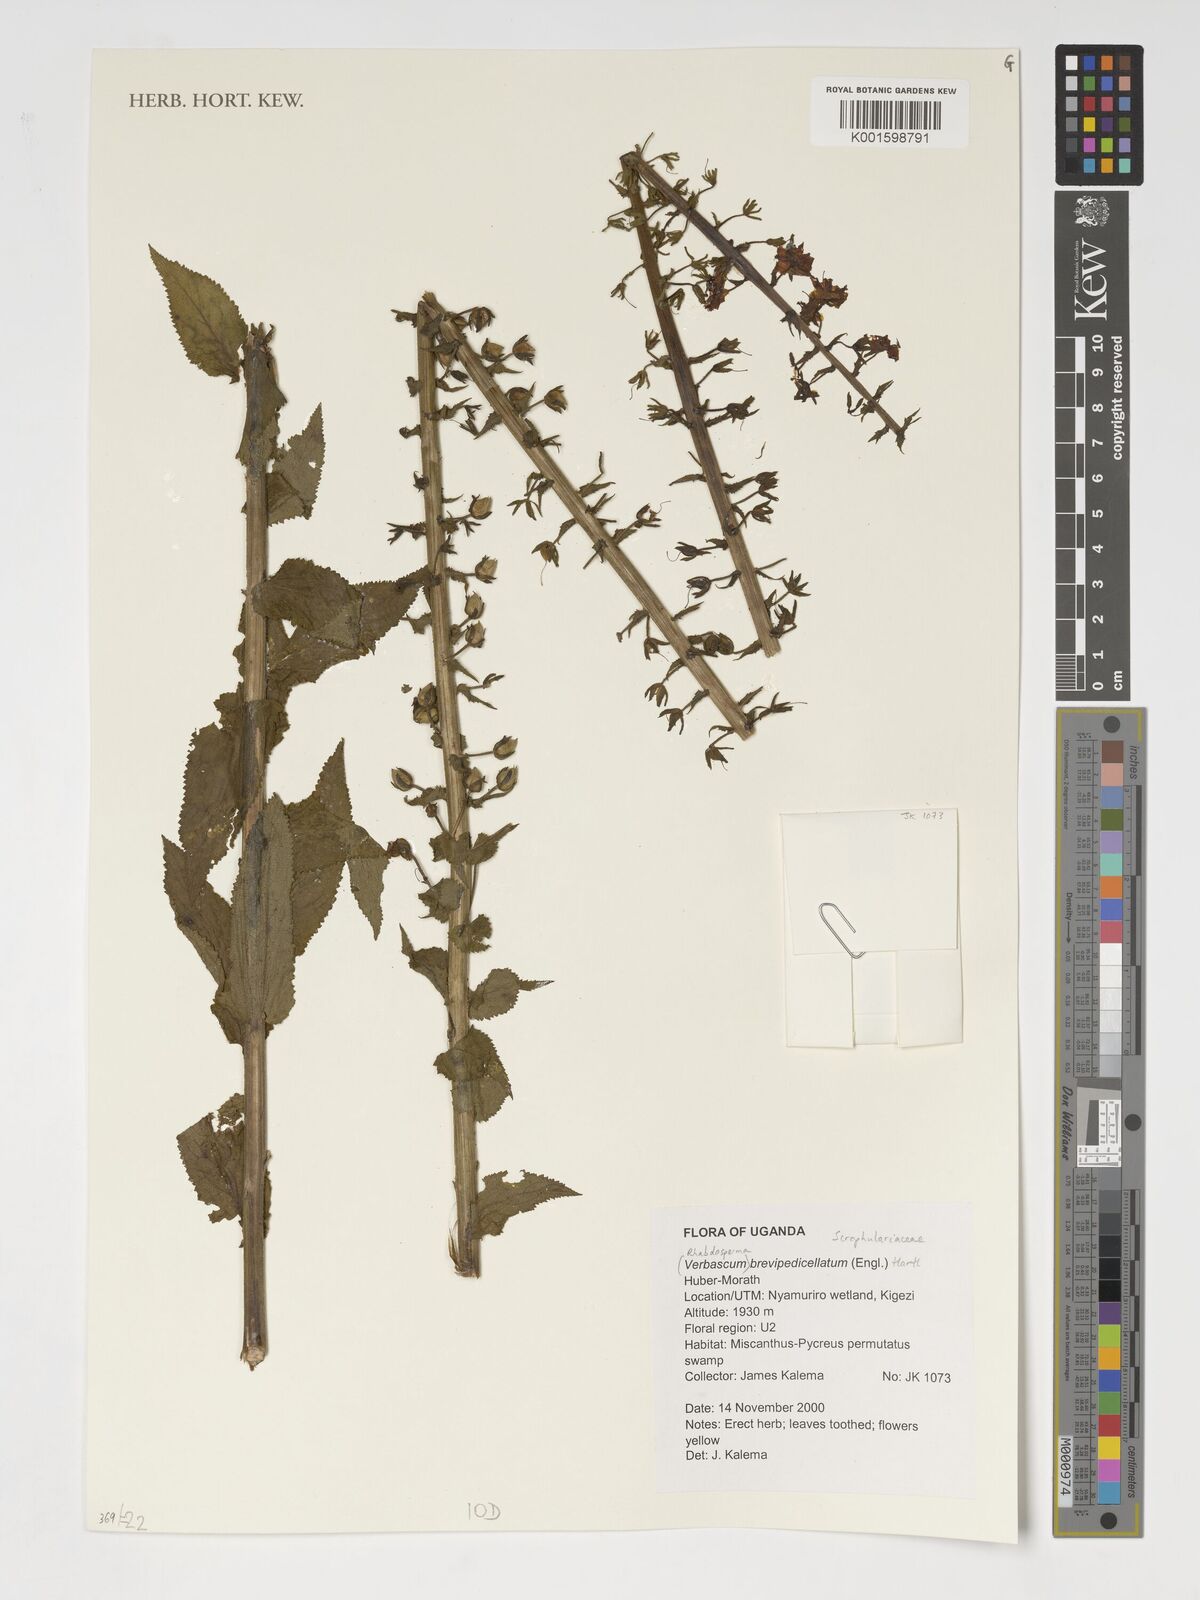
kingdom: Plantae
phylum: Tracheophyta
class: Magnoliopsida
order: Lamiales
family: Scrophulariaceae
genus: Rhabdotosperma
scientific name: Rhabdotosperma brevipedicellata
